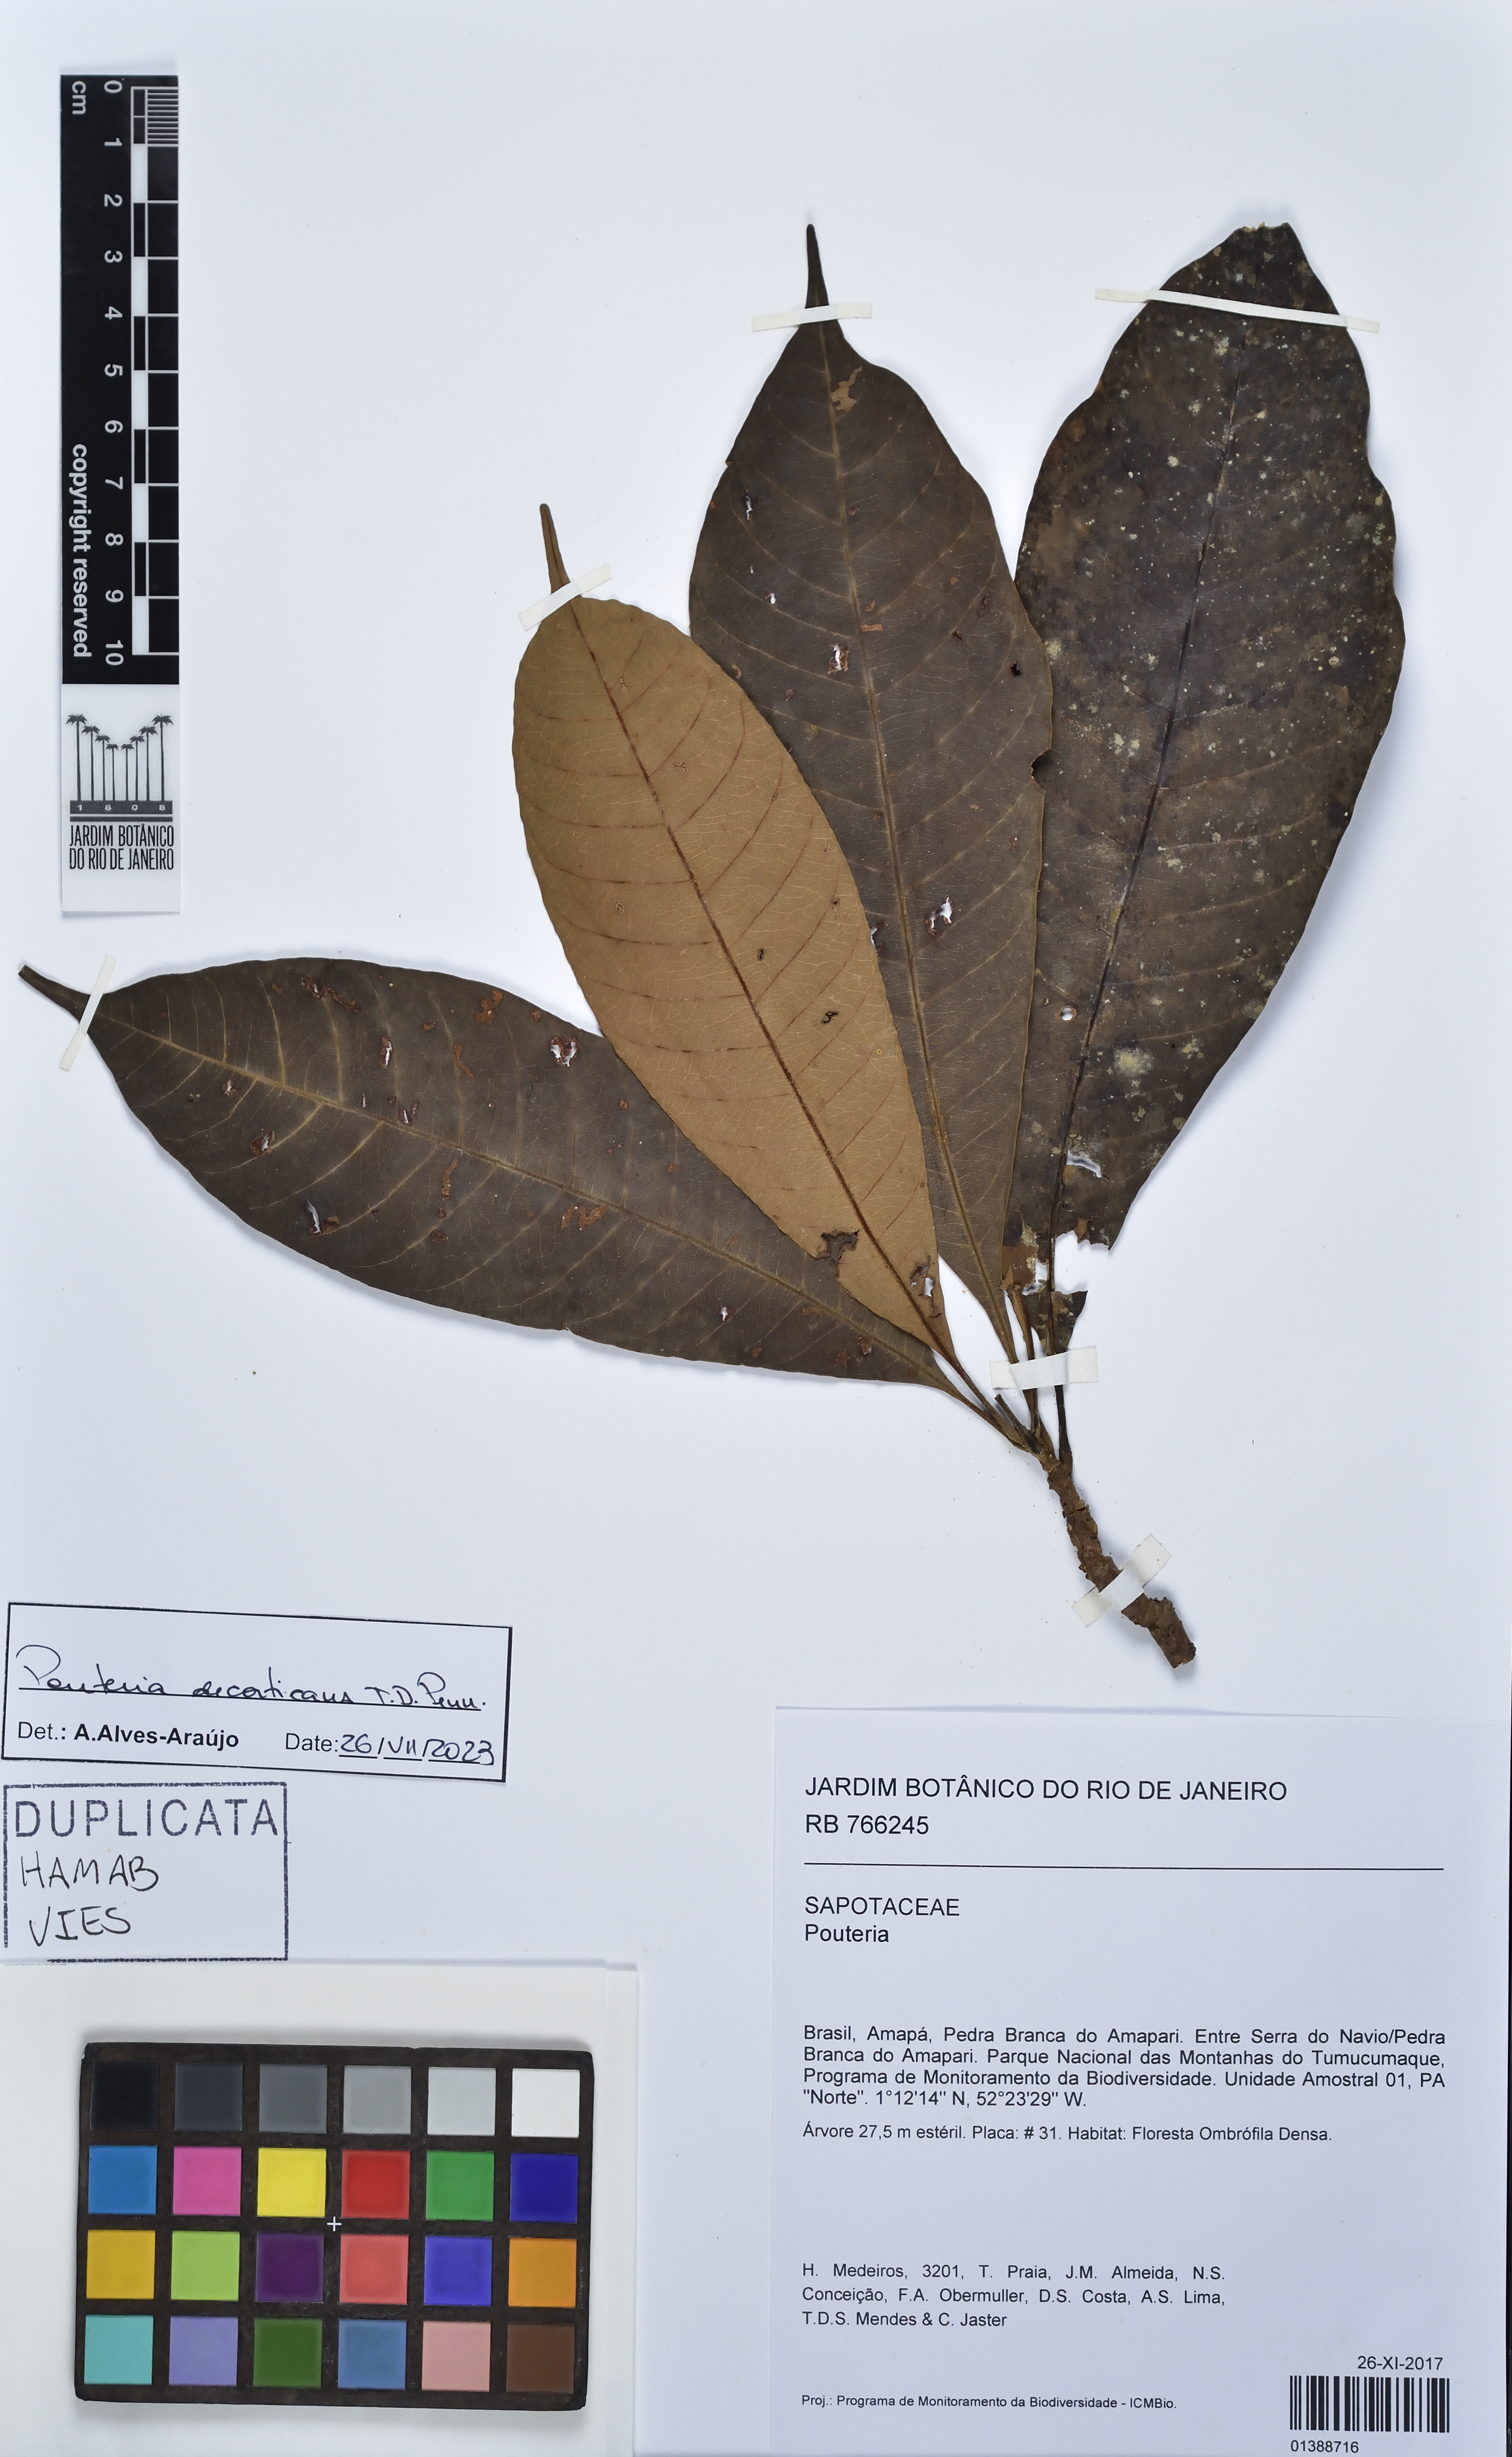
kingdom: Plantae
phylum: Tracheophyta
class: Magnoliopsida
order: Ericales
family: Sapotaceae
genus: Pouteria
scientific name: Pouteria decorticans
